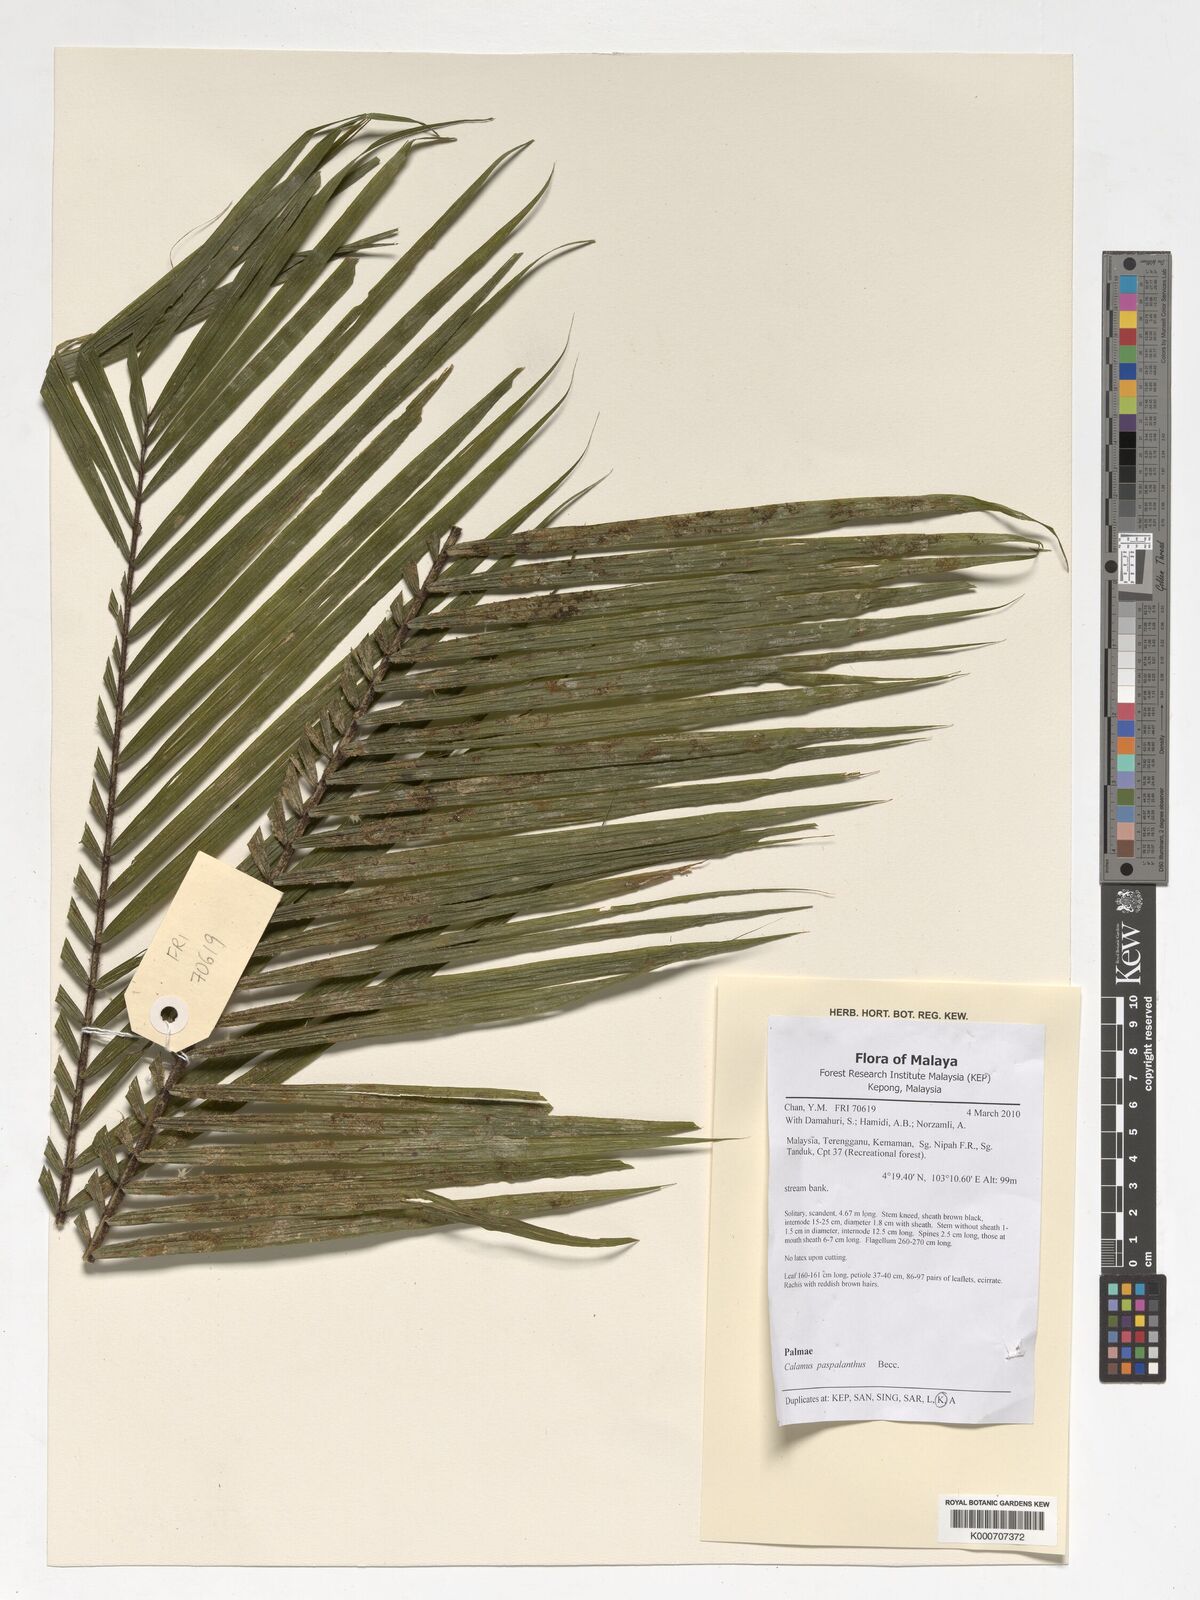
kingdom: Plantae
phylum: Tracheophyta
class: Liliopsida
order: Arecales
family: Arecaceae
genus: Calamus
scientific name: Calamus paspalanthus
